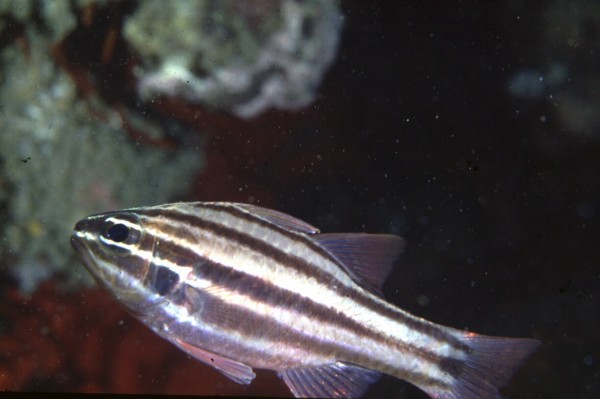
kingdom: Animalia
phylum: Chordata
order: Perciformes
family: Apogonidae
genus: Ostorhinchus
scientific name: Ostorhinchus taeniophorus
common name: Reef-flat cardinalfish
